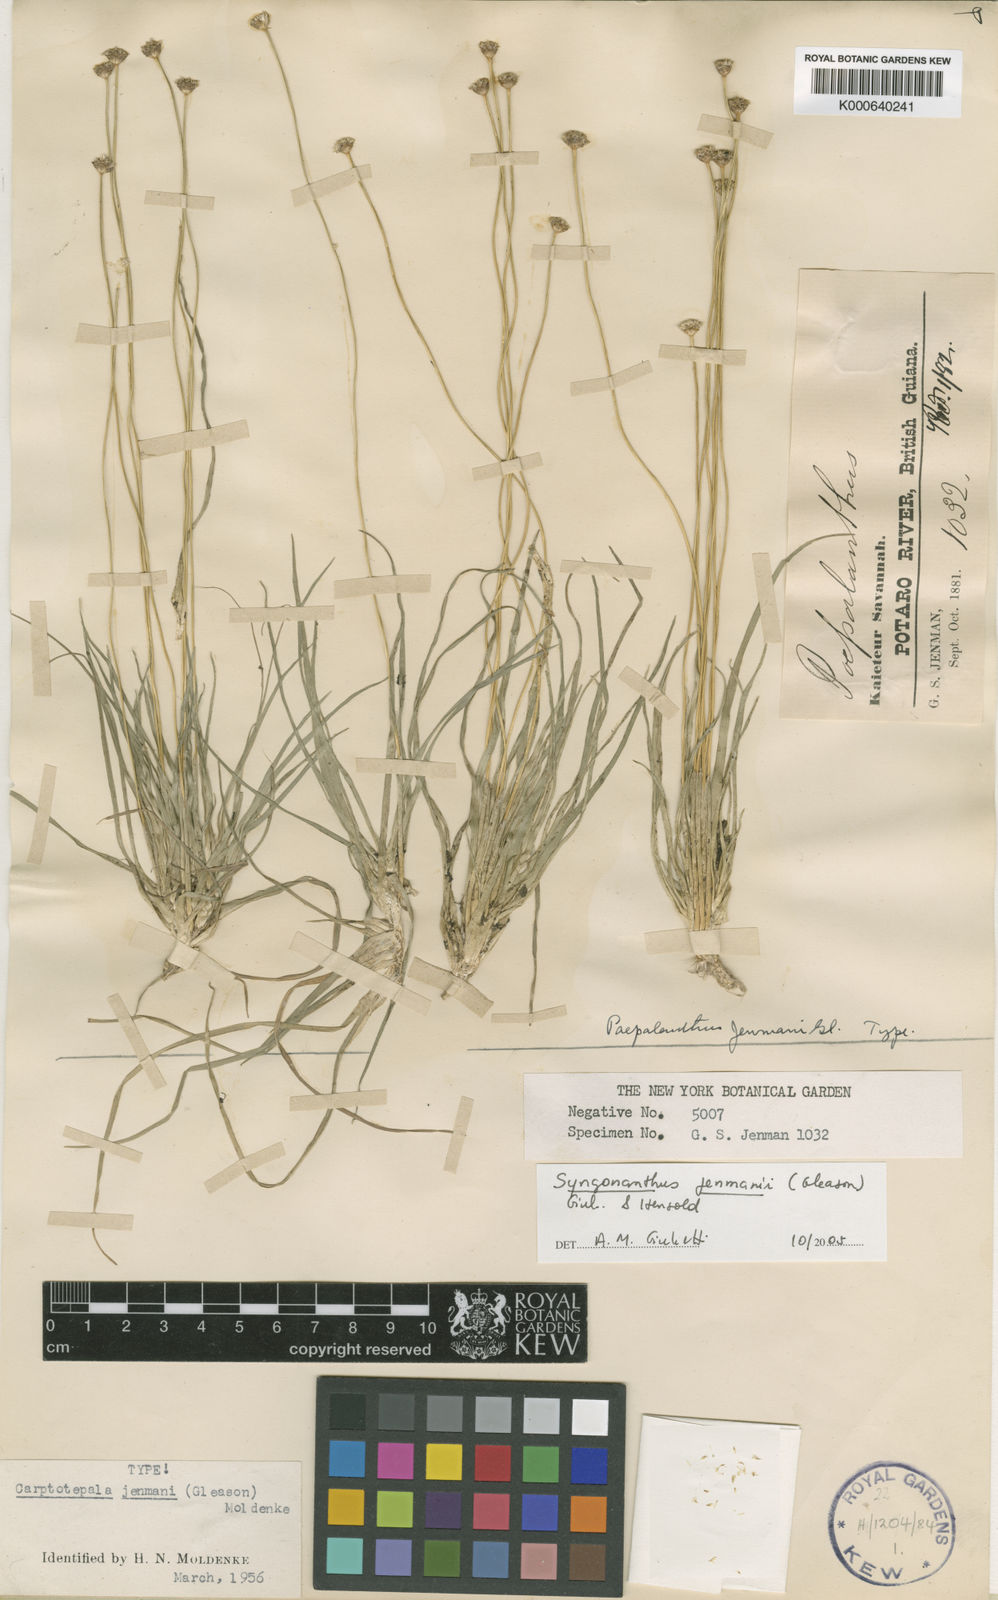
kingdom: Plantae
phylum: Tracheophyta
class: Liliopsida
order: Poales
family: Eriocaulaceae
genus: Comanthera
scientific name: Comanthera jenmanii
